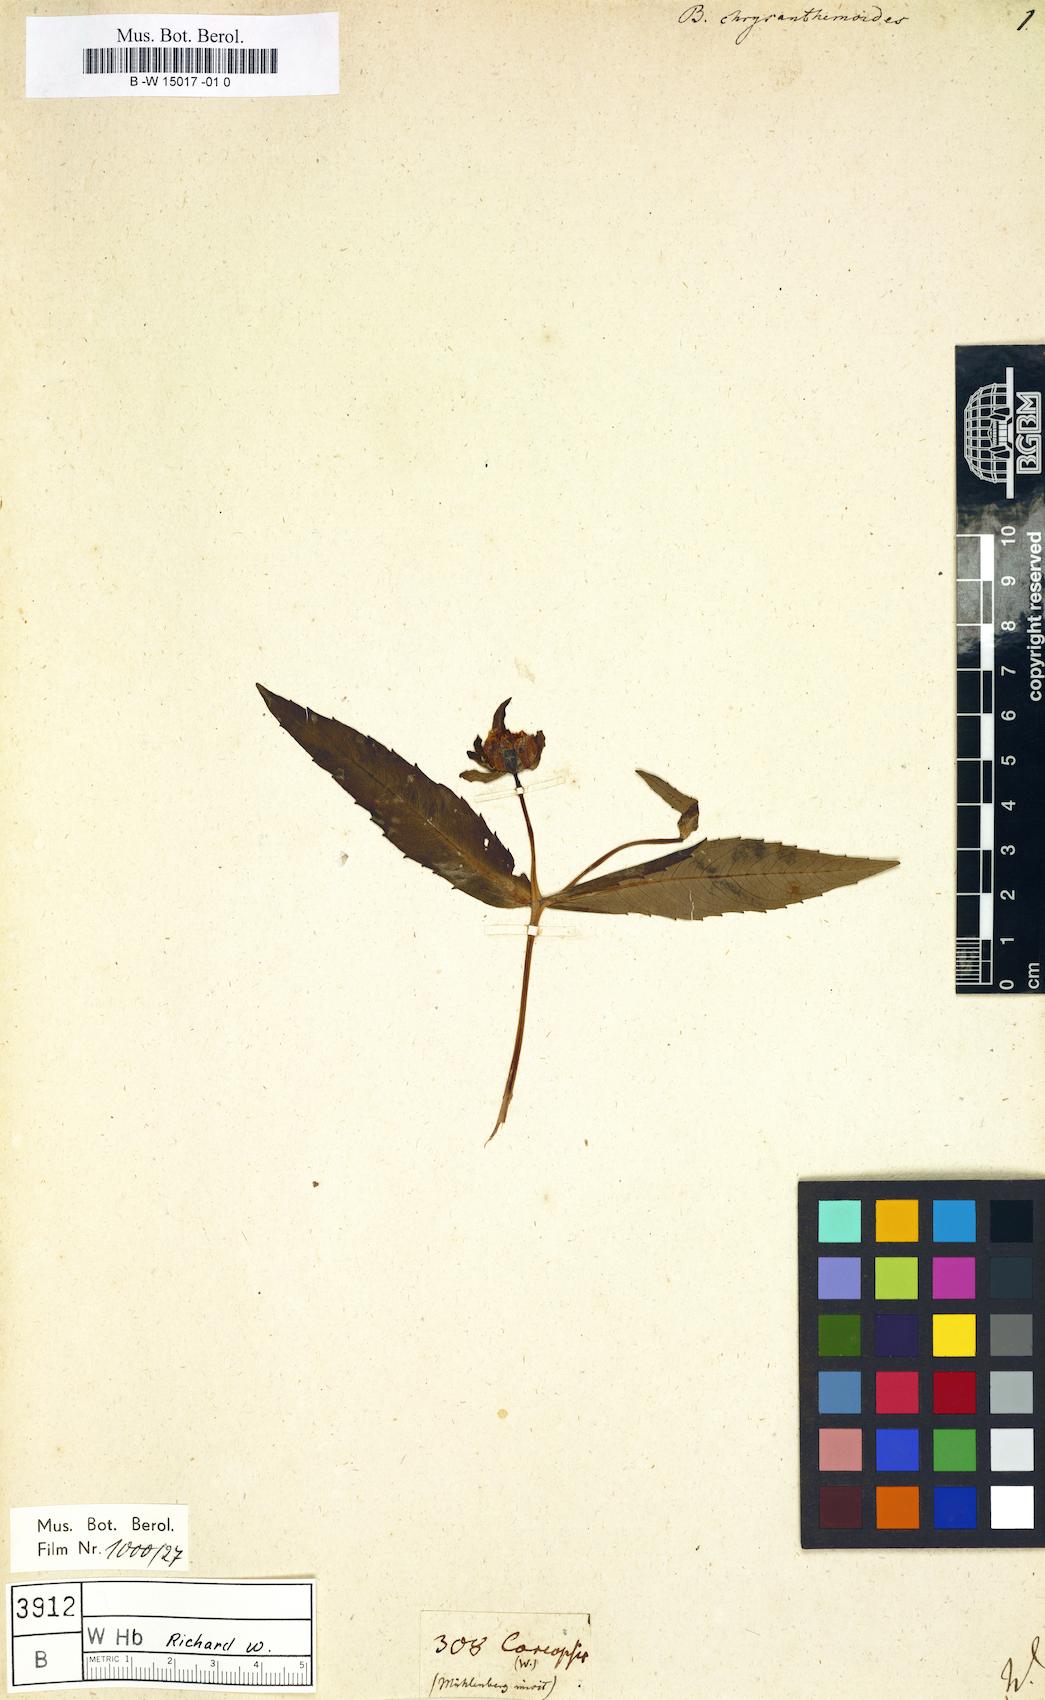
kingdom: Plantae
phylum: Tracheophyta
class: Magnoliopsida
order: Asterales
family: Asteraceae
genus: Bidens
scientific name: Bidens laevis
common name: Larger bur-marigold
